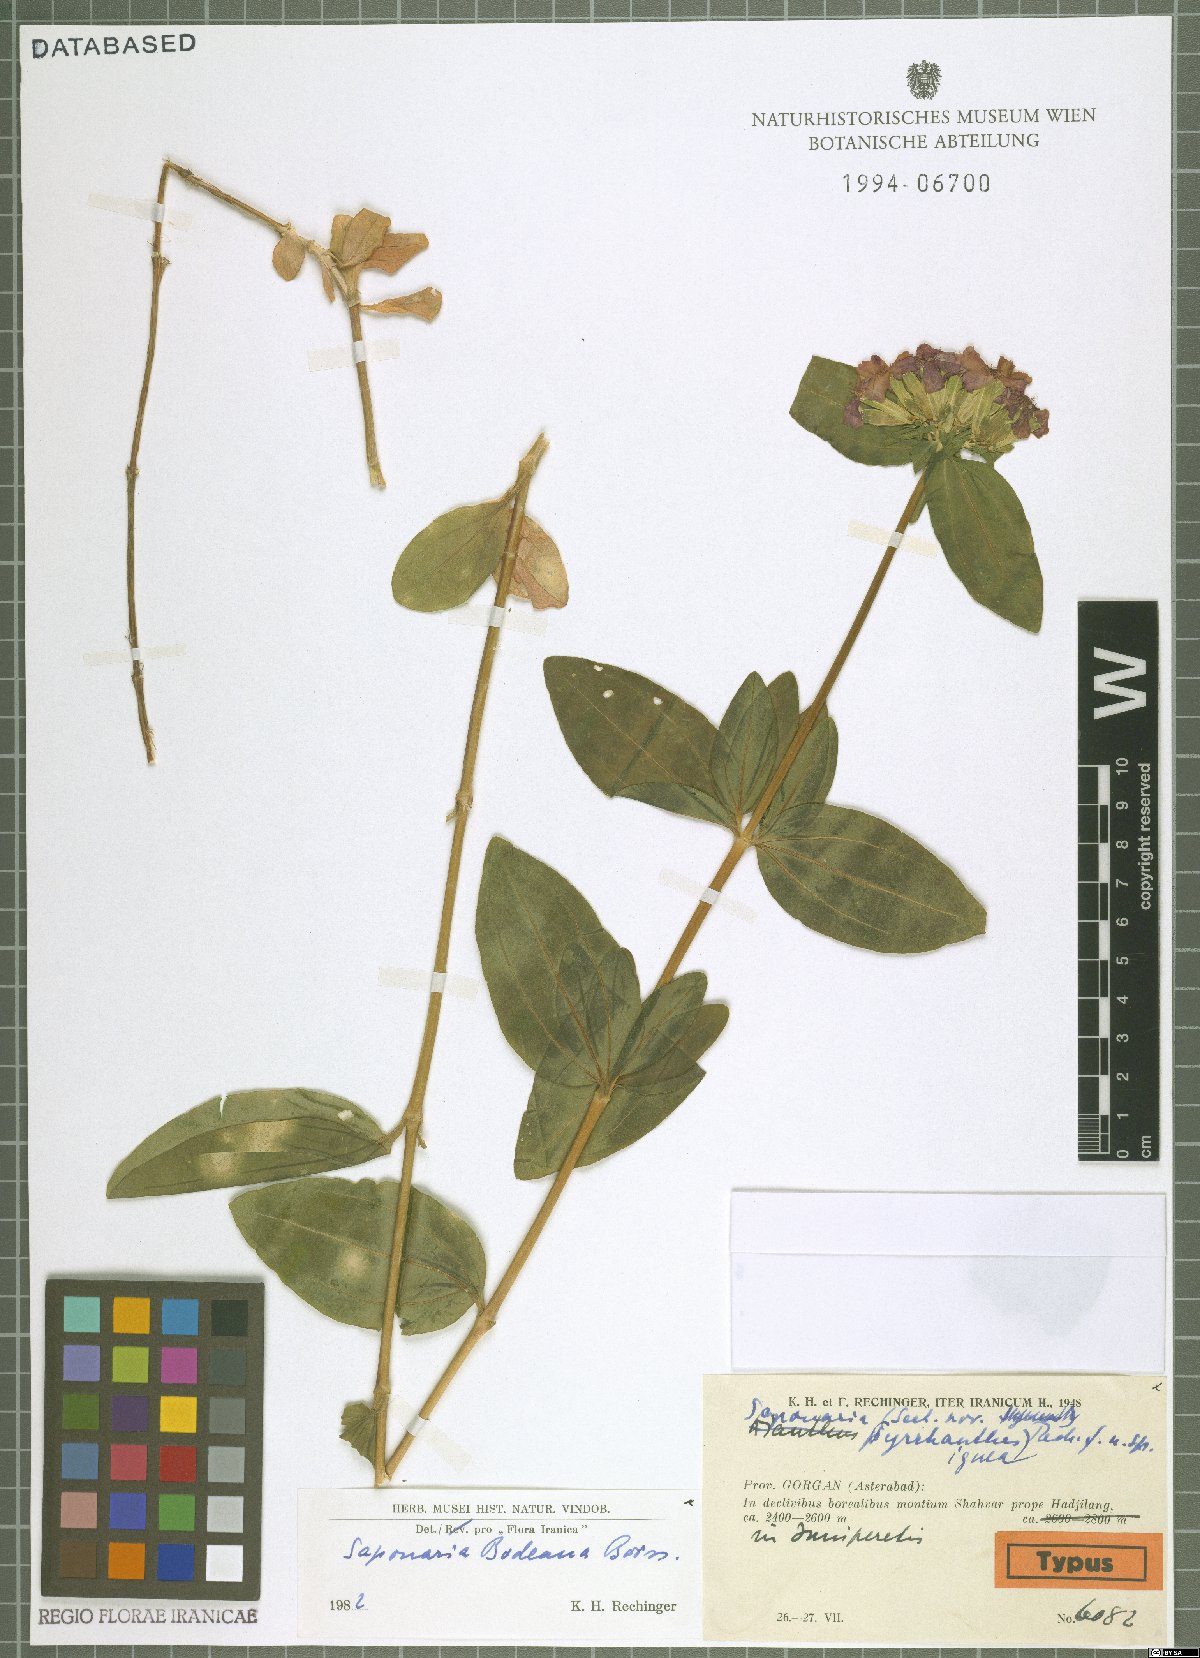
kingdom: Plantae
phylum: Tracheophyta
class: Magnoliopsida
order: Caryophyllales
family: Caryophyllaceae
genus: Saponaria
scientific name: Saponaria bodeana
